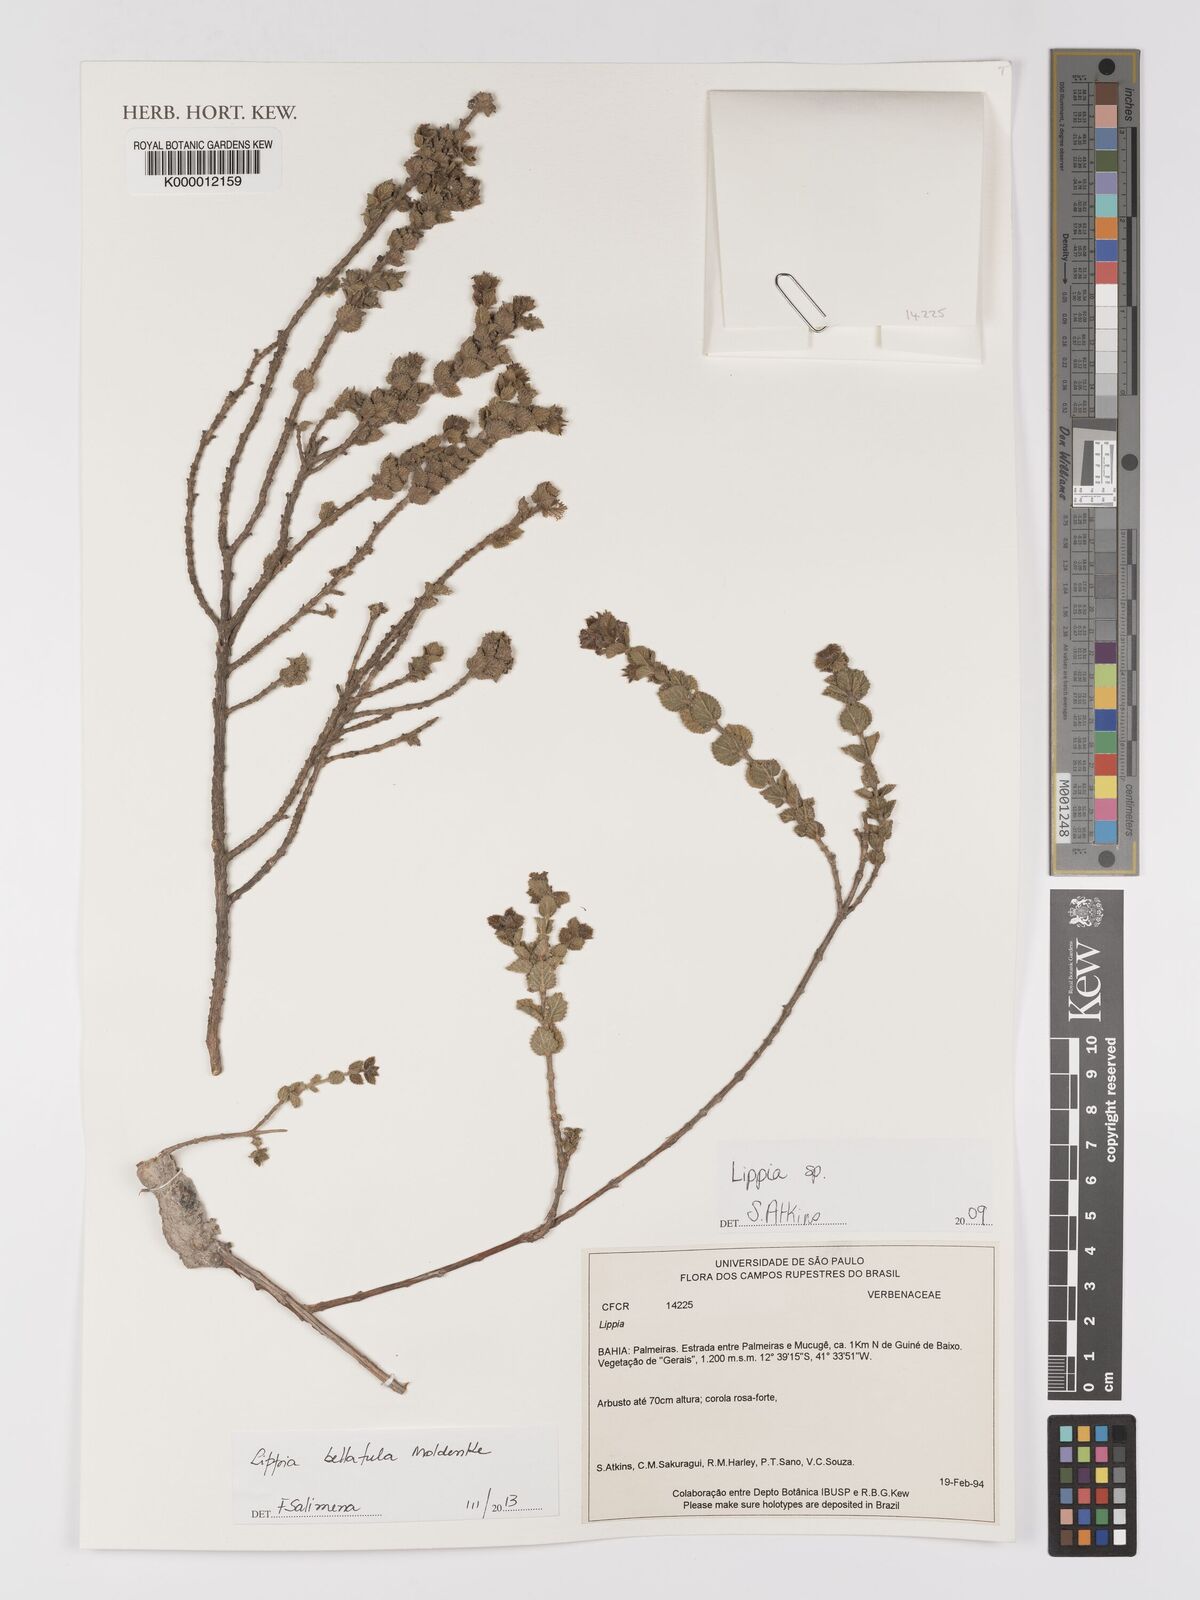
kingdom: Plantae
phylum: Tracheophyta
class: Magnoliopsida
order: Lamiales
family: Verbenaceae
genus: Lippia
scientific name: Lippia
